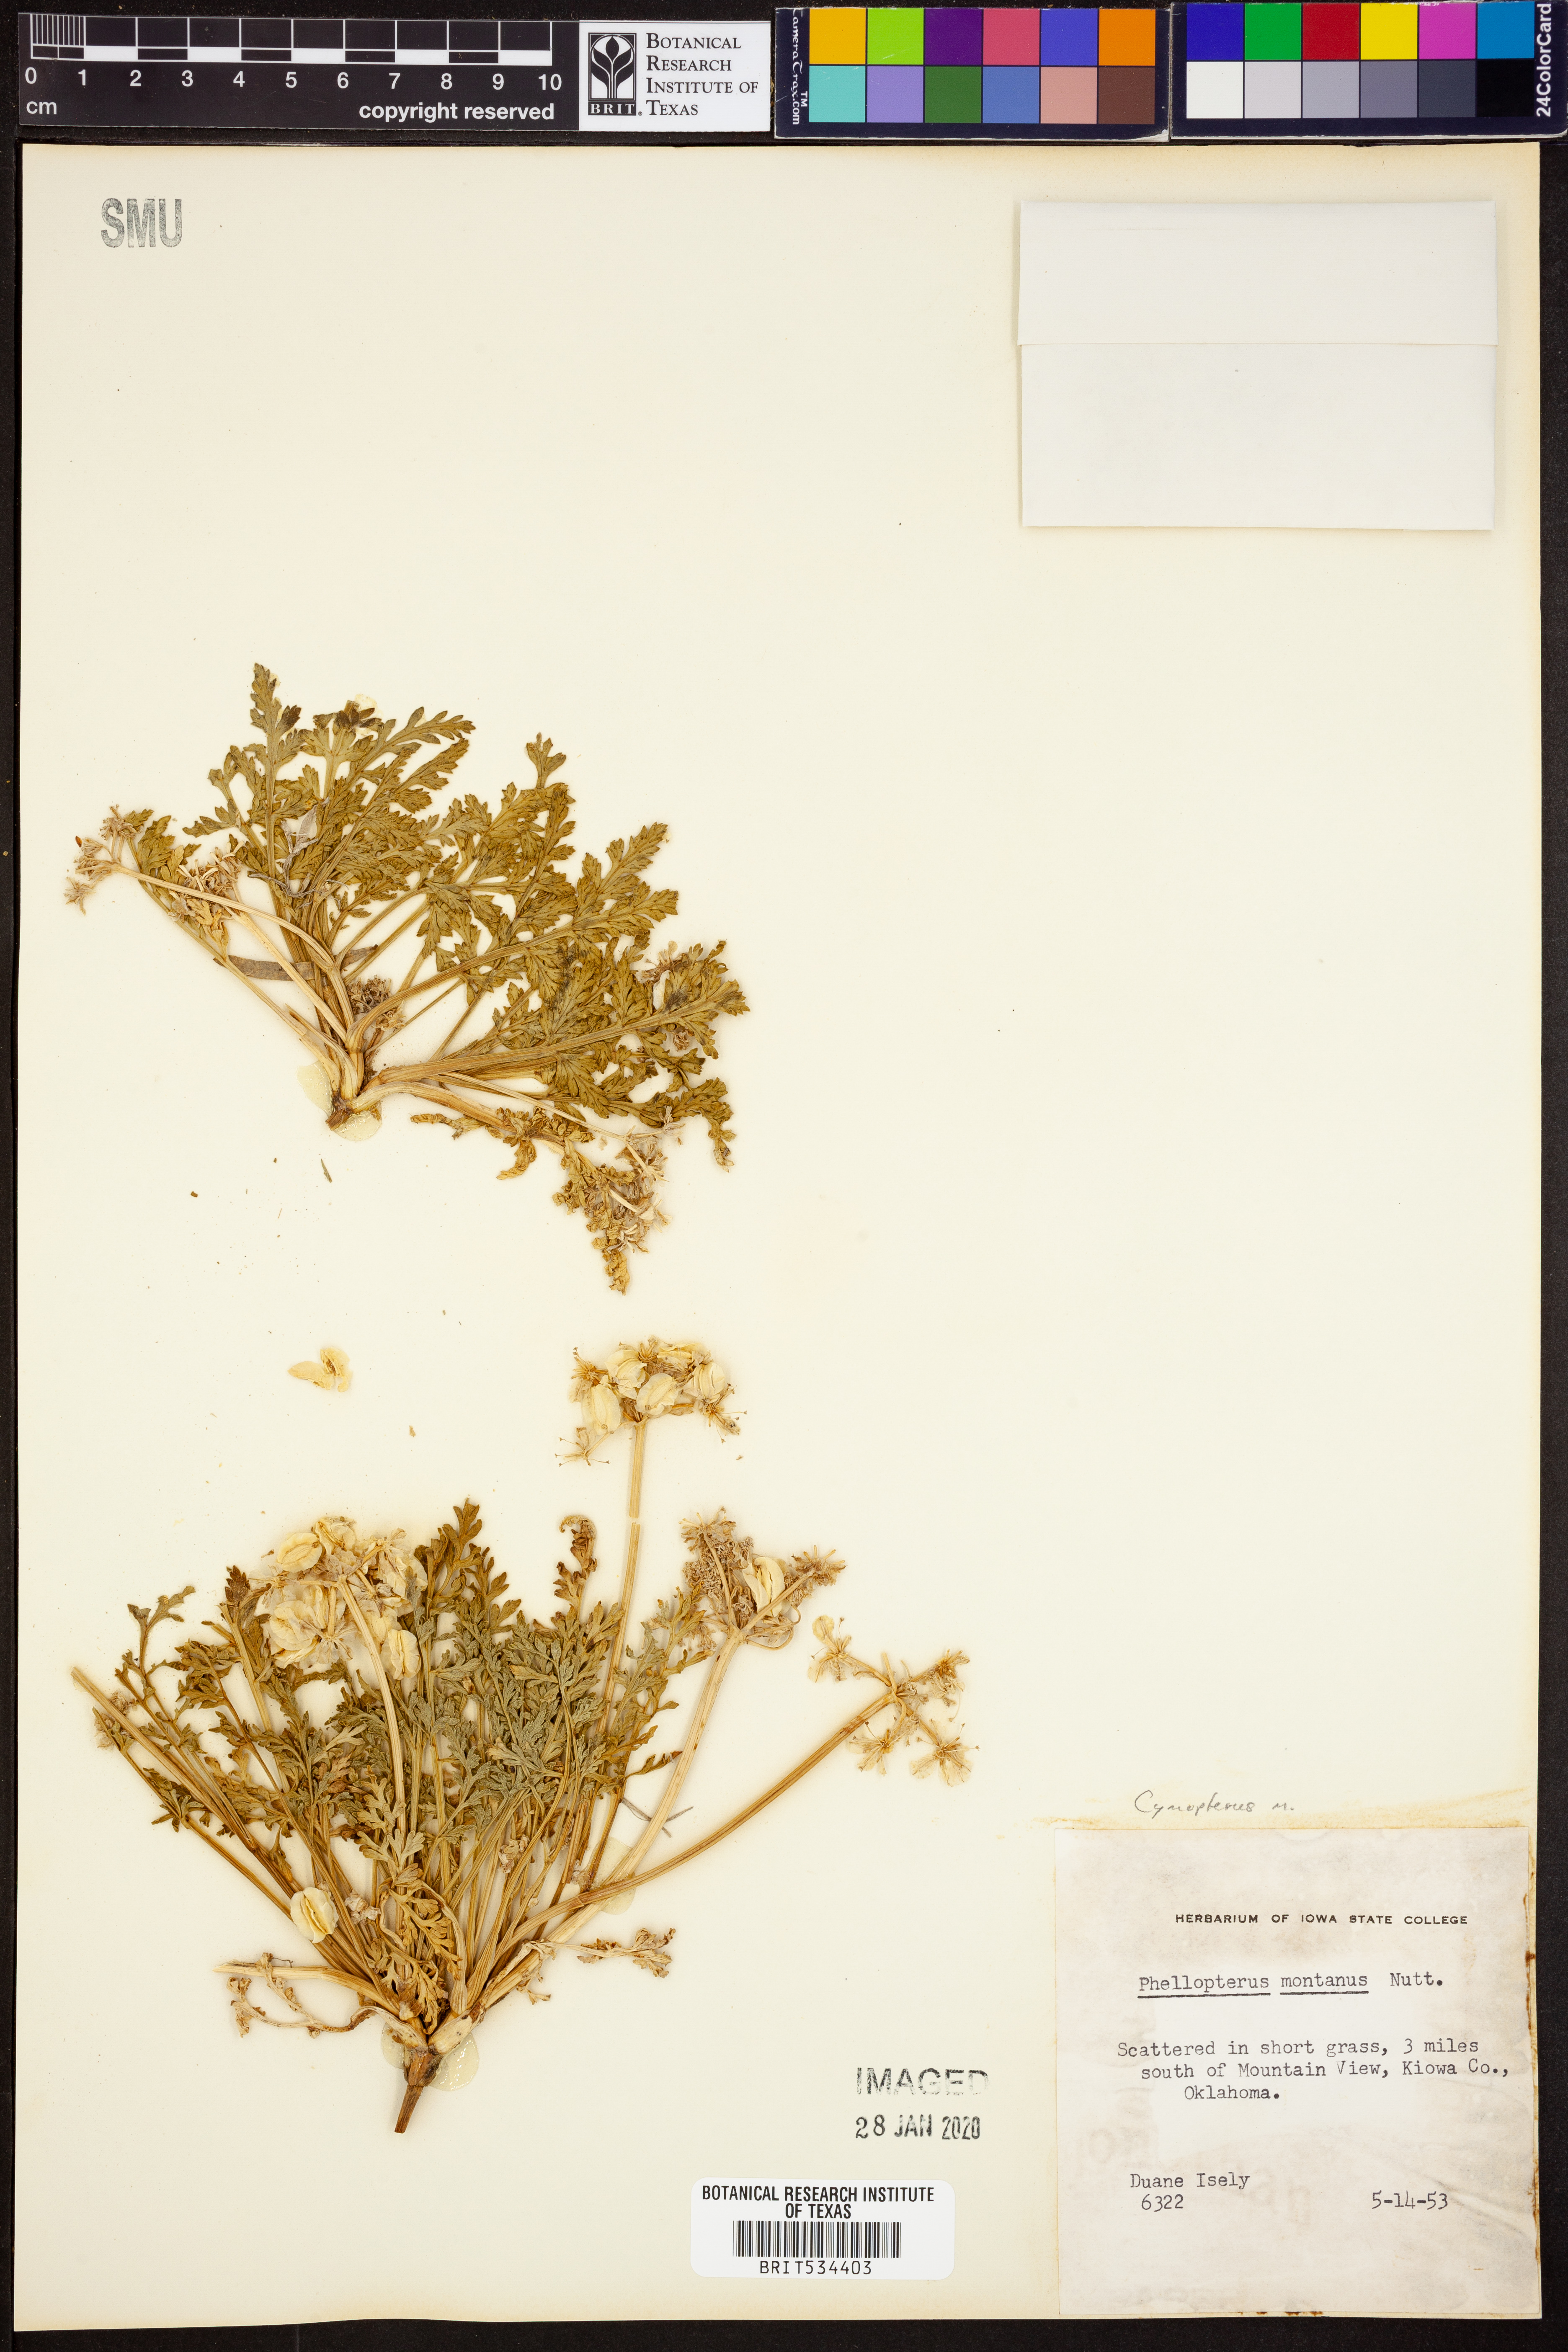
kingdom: Plantae
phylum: Tracheophyta
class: Magnoliopsida
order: Apiales
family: Apiaceae
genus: Vesper
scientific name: Vesper montanus
